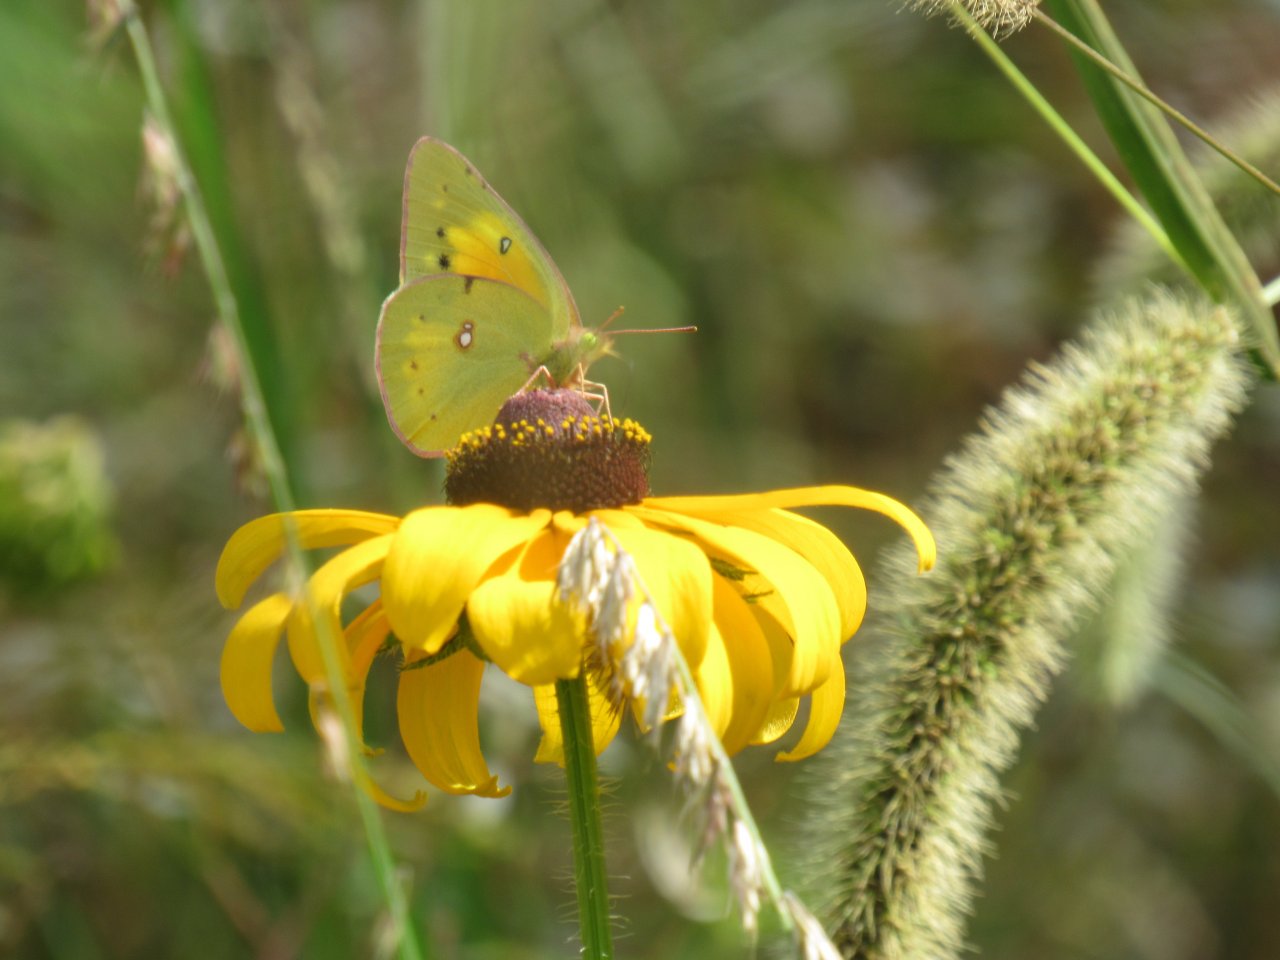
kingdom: Animalia
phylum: Arthropoda
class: Insecta
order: Lepidoptera
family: Pieridae
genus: Colias
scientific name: Colias eurytheme
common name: Orange Sulphur
